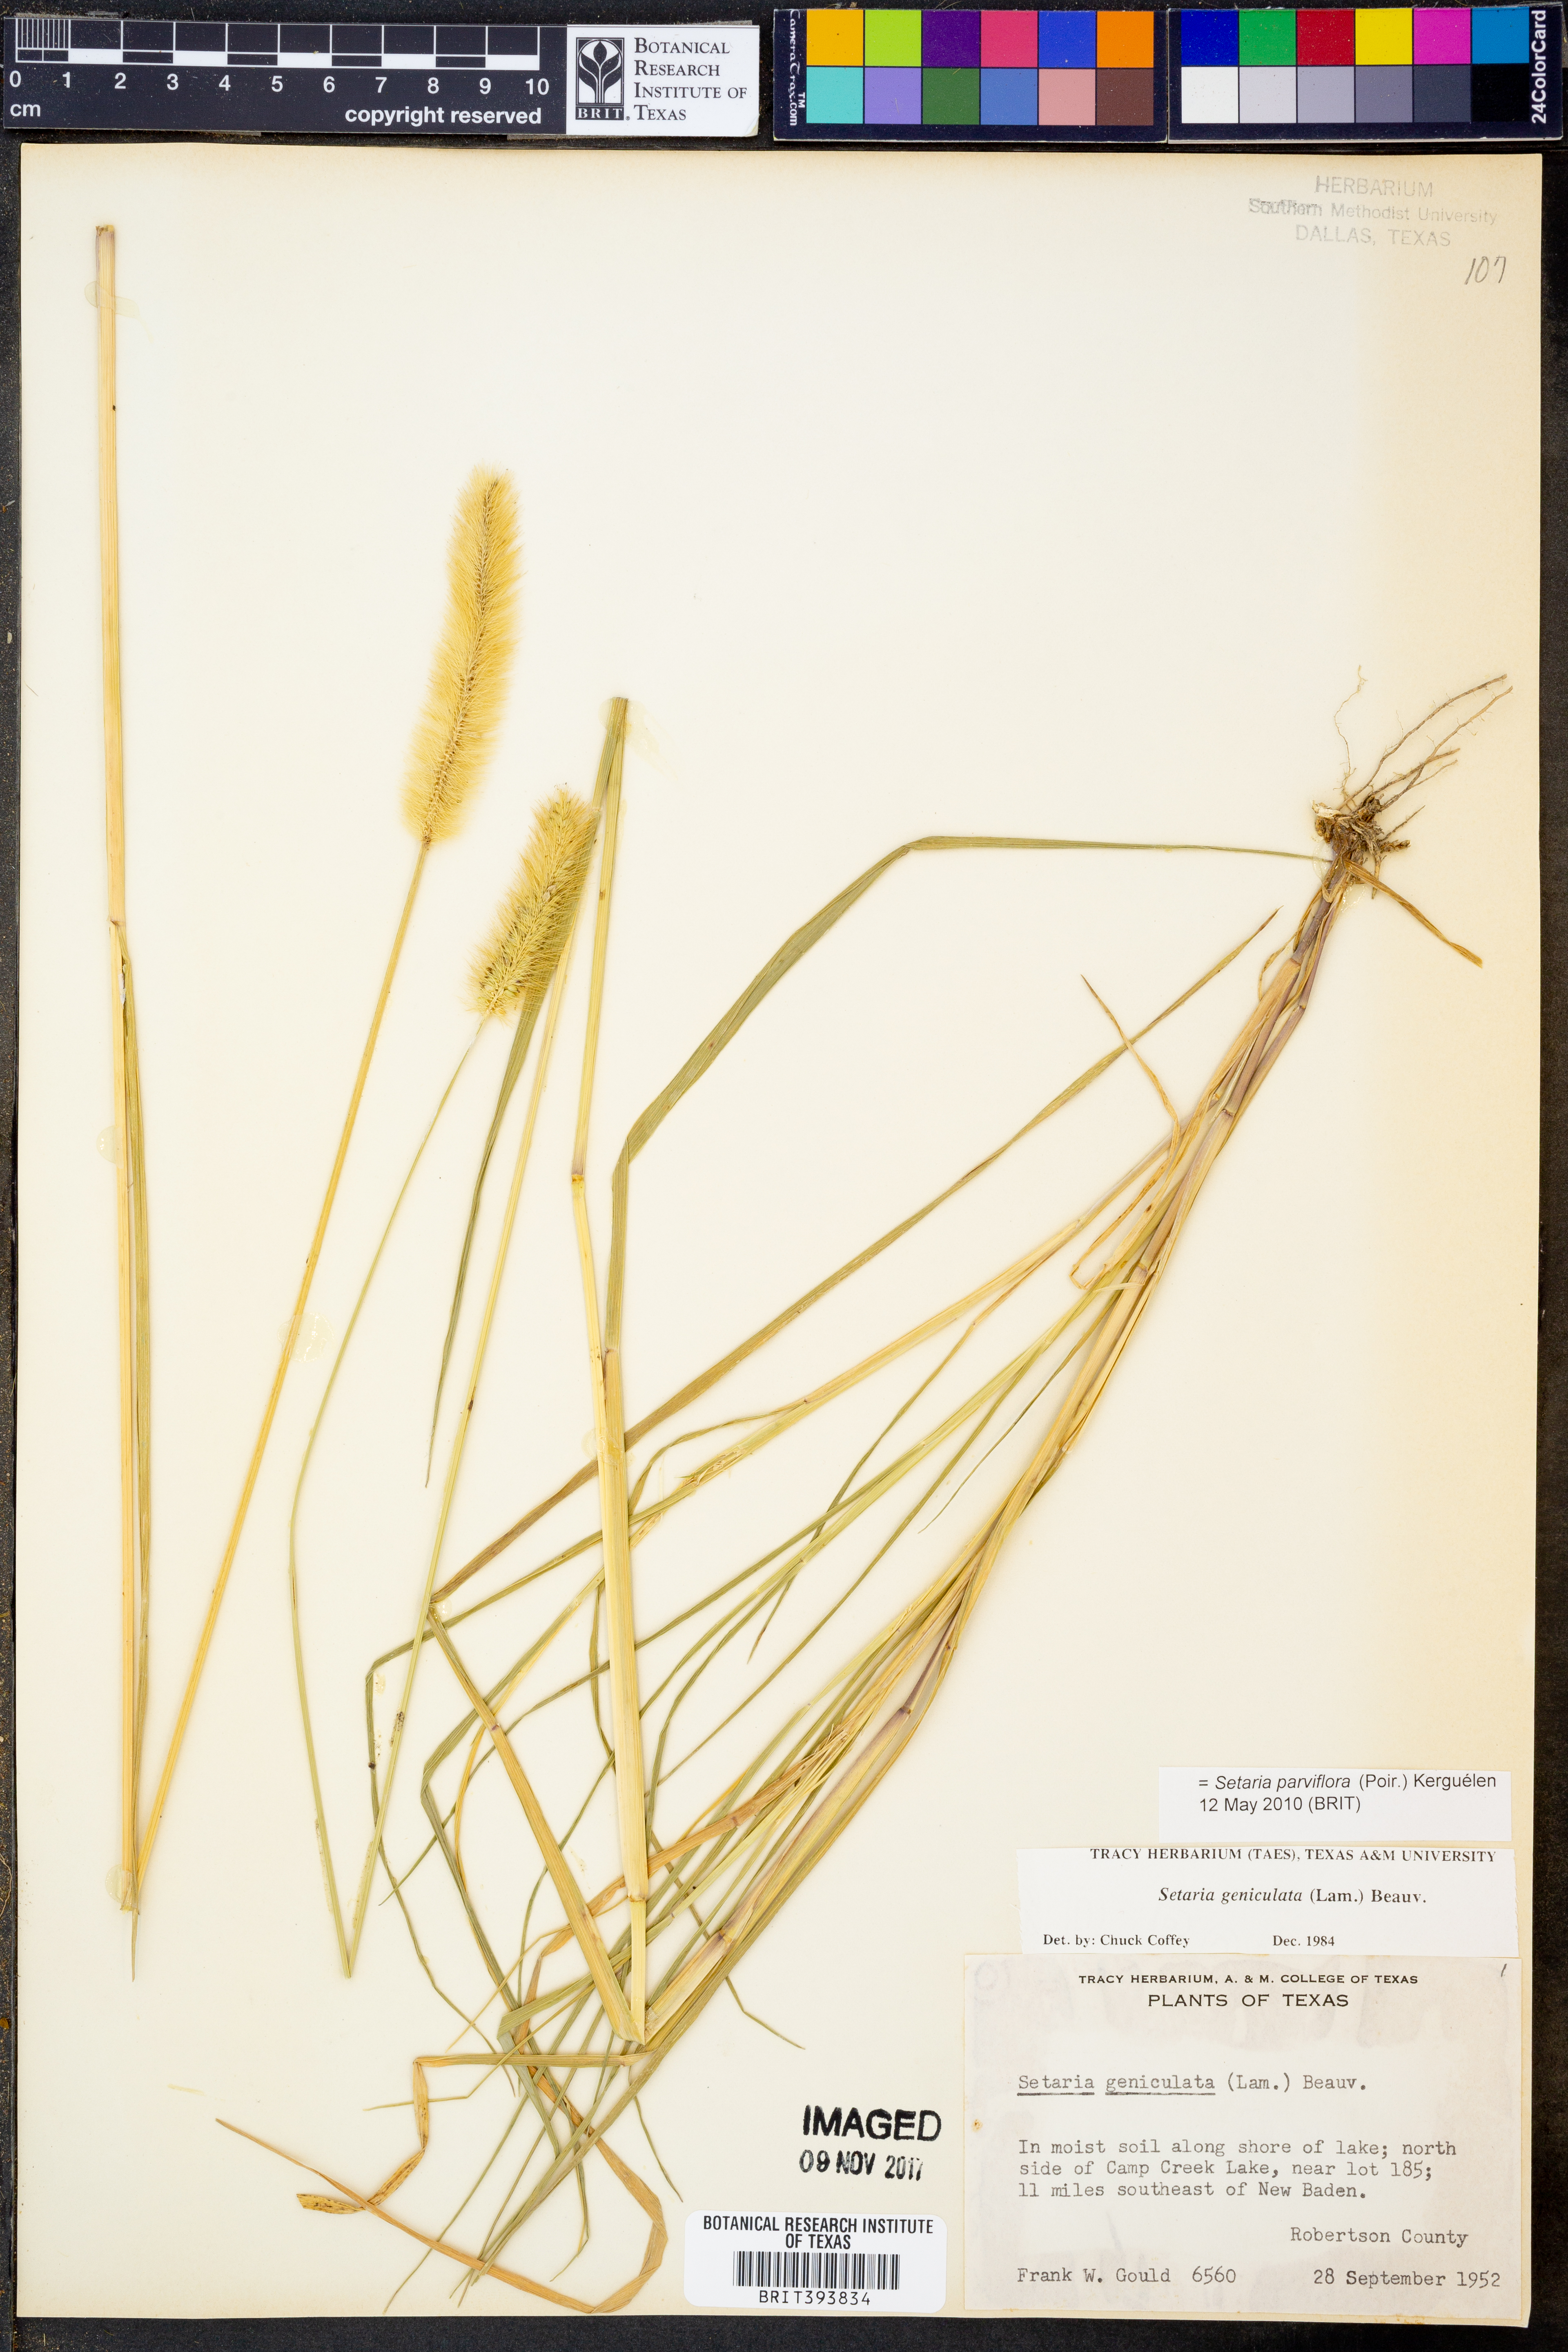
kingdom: Plantae
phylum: Tracheophyta
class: Liliopsida
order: Poales
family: Poaceae
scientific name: Poaceae
